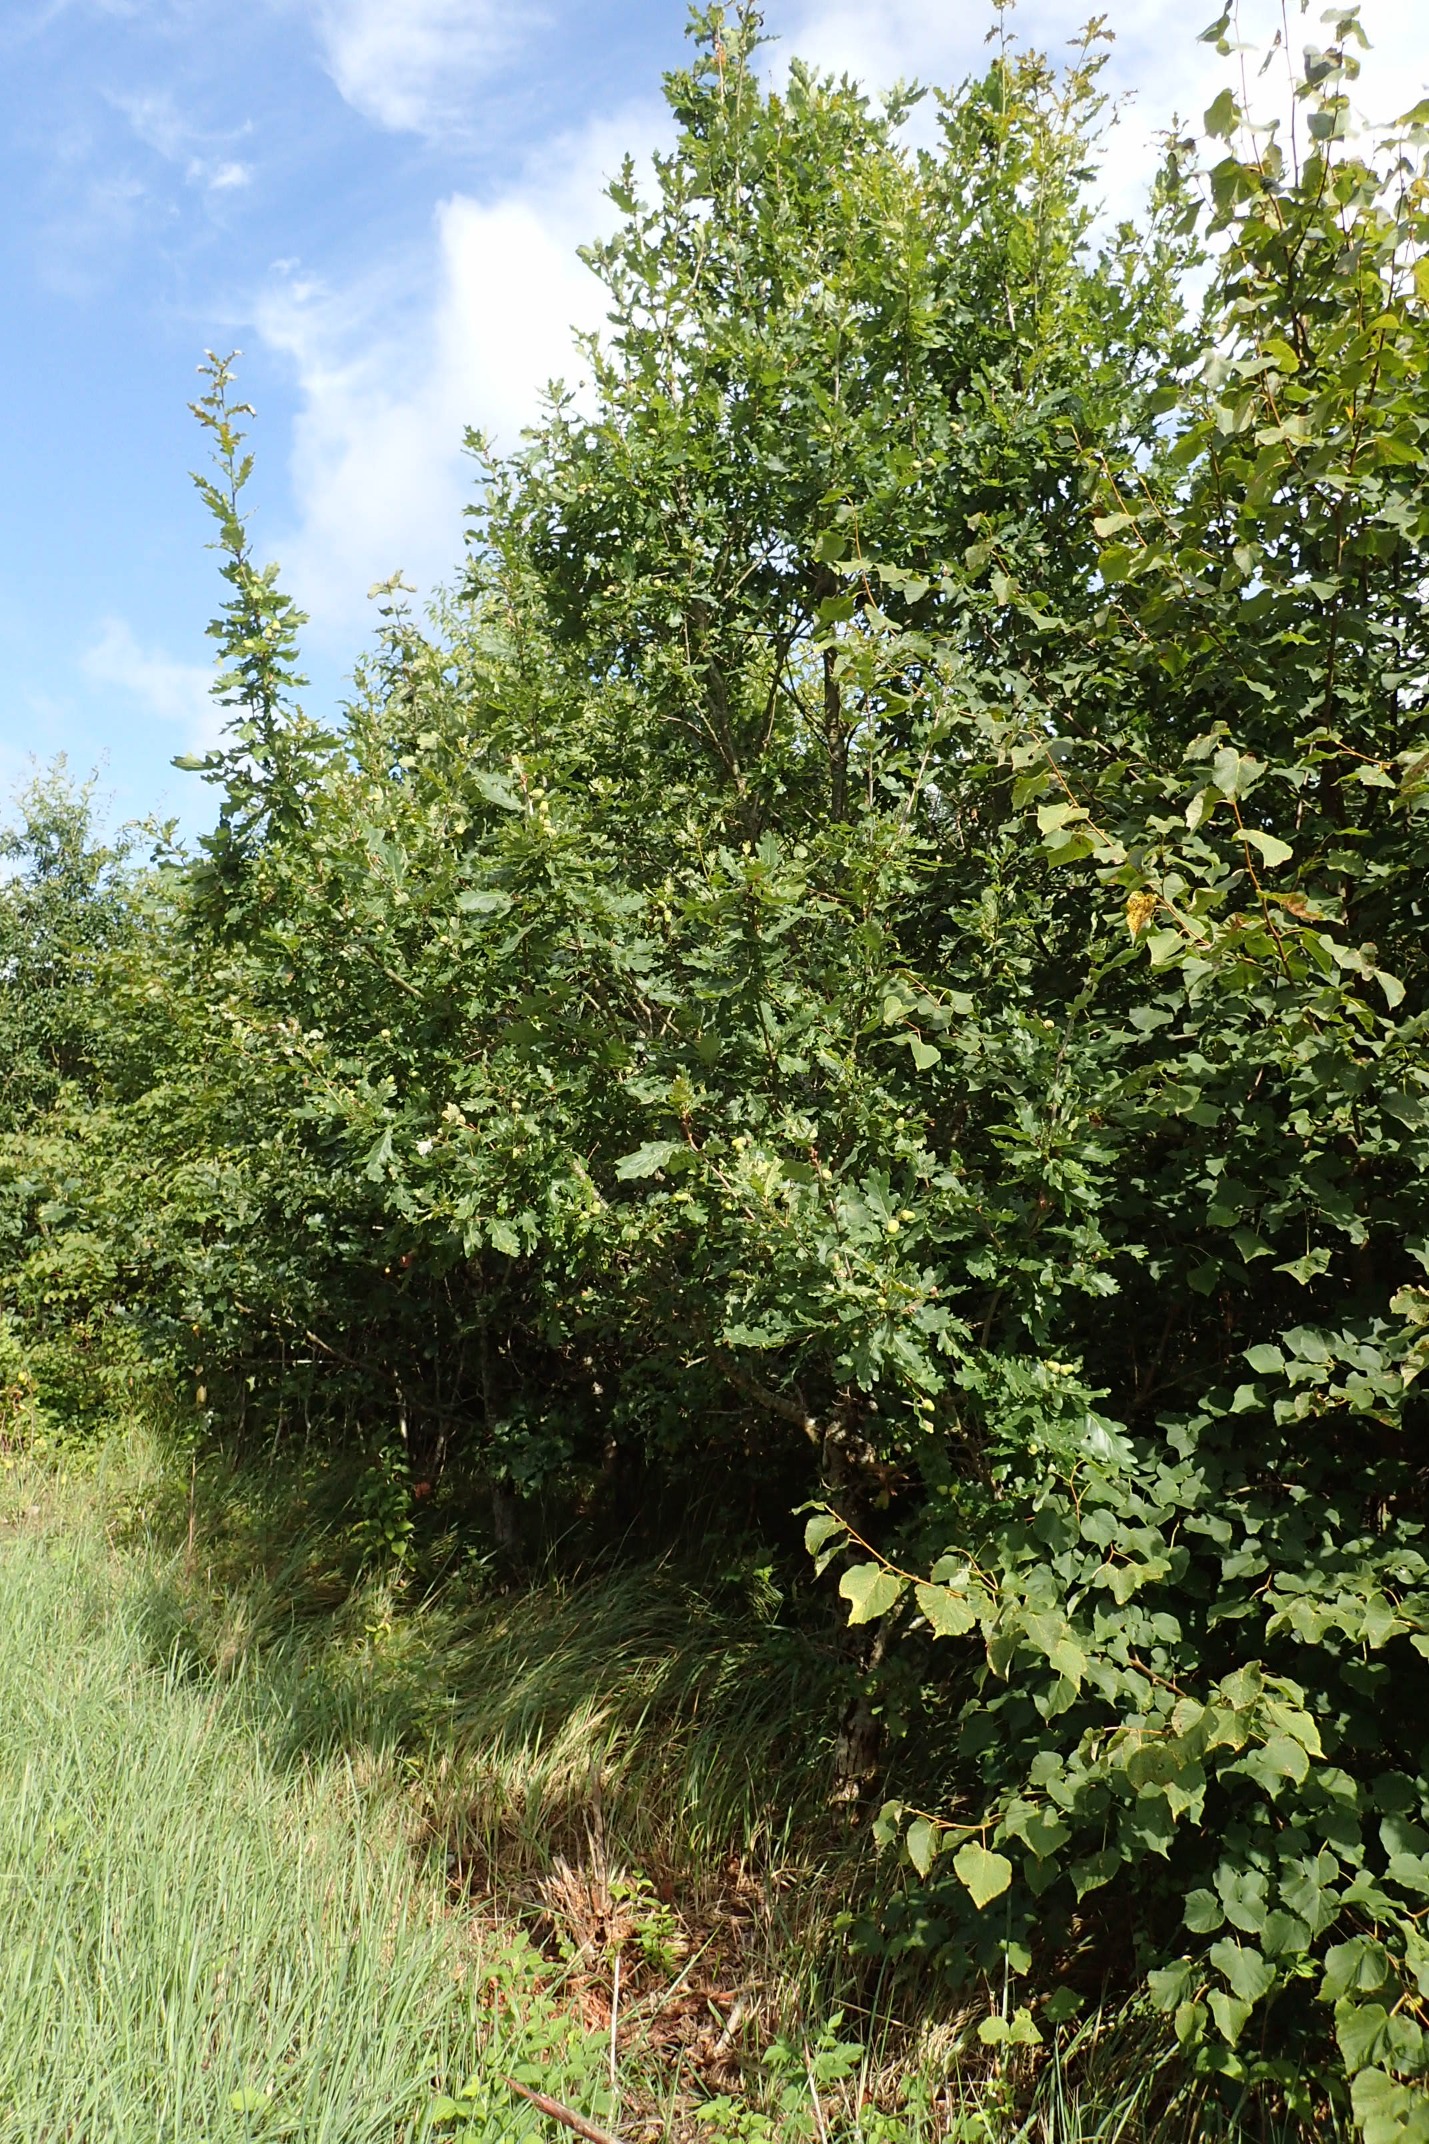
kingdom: Plantae
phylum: Tracheophyta
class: Magnoliopsida
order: Fagales
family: Fagaceae
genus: Quercus
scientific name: Quercus robur
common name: Stilk-eg/almindelig eg
